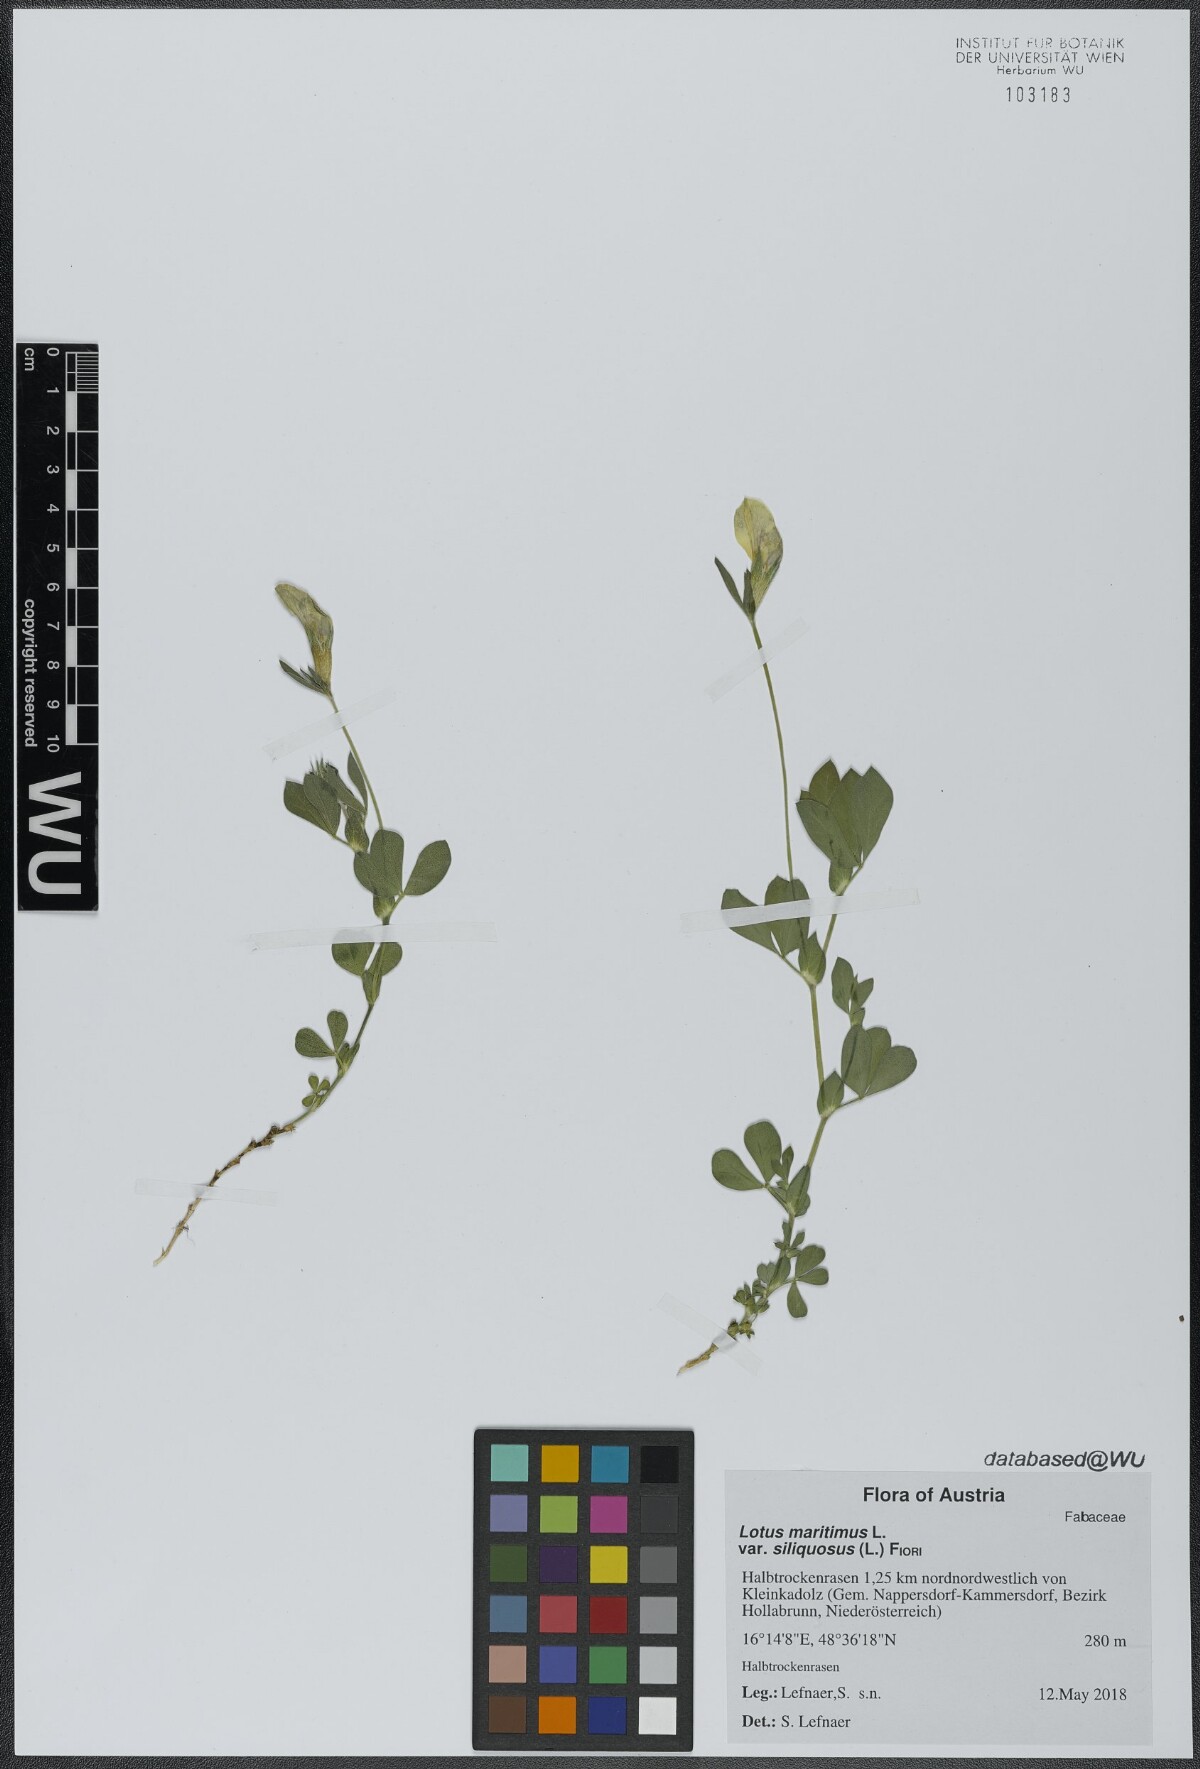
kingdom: Plantae
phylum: Tracheophyta
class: Magnoliopsida
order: Fabales
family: Fabaceae
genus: Lathyrus
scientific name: Lathyrus inconspicuus
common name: Inconspicuous pea
